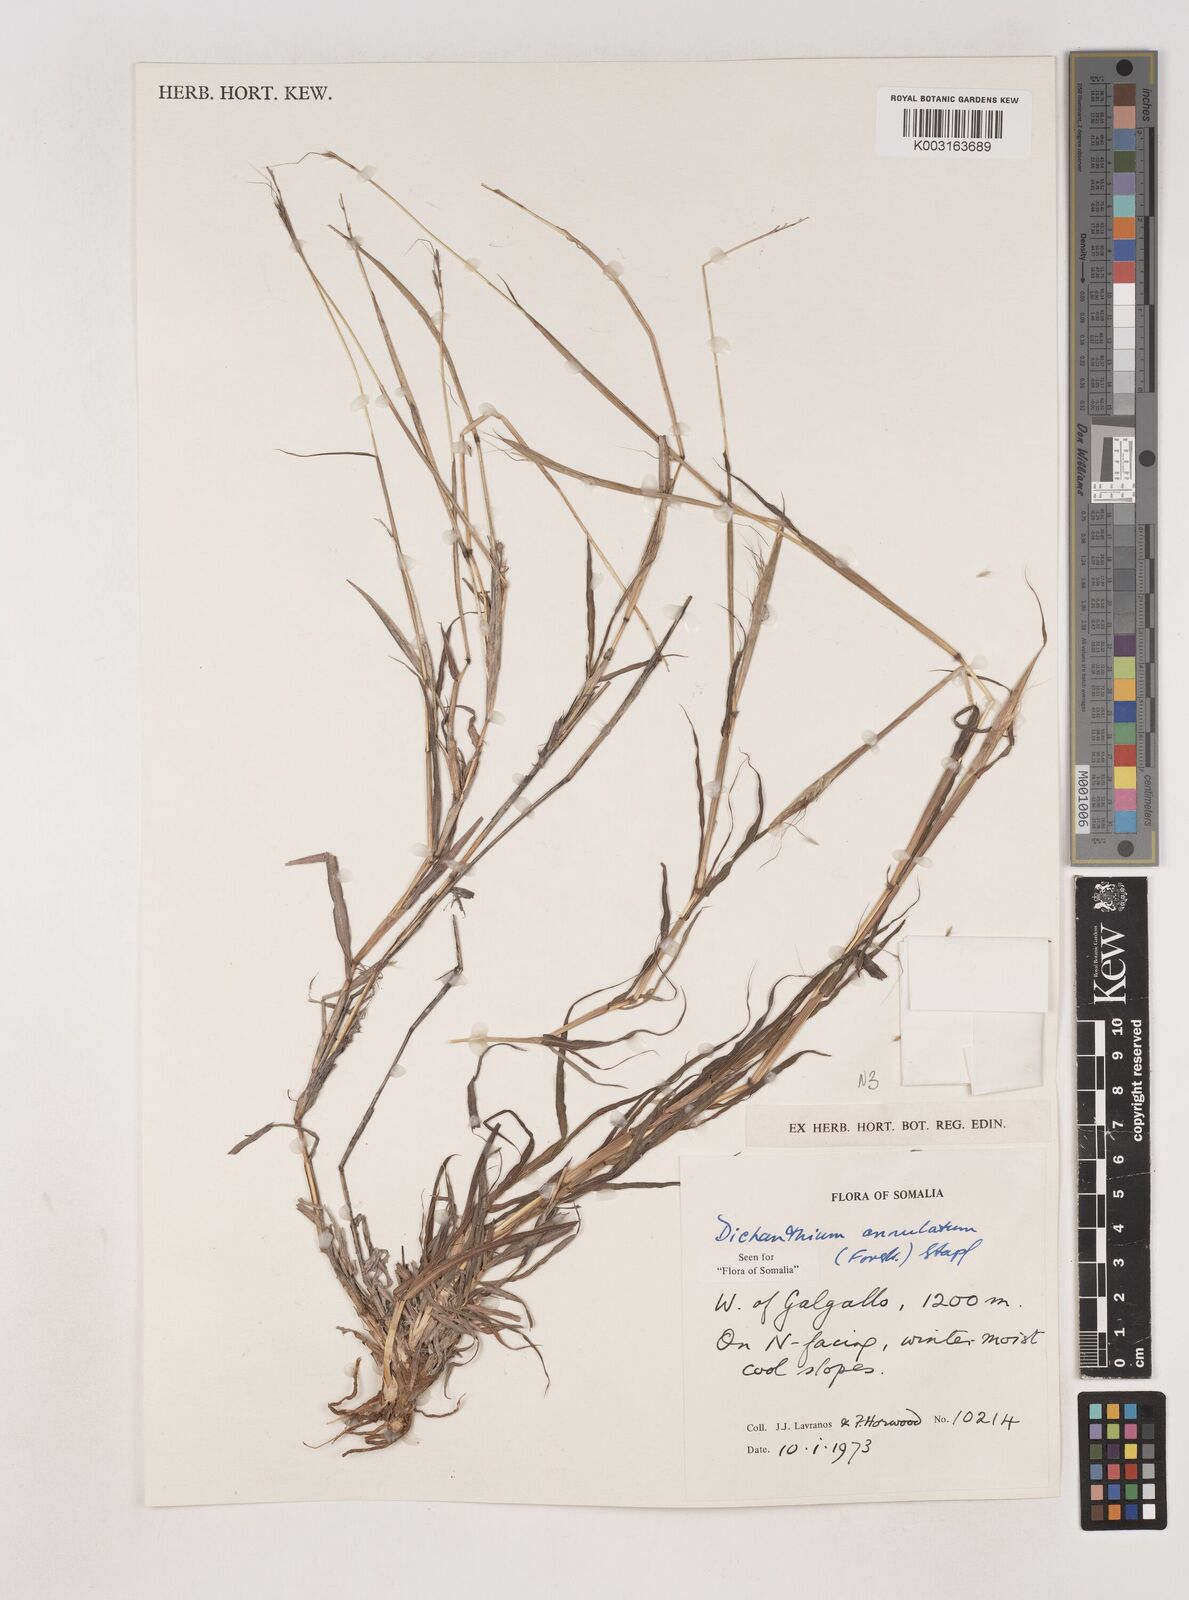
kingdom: Plantae
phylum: Tracheophyta
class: Liliopsida
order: Poales
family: Poaceae
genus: Dichanthium
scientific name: Dichanthium annulatum
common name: Kleberg's bluestem
